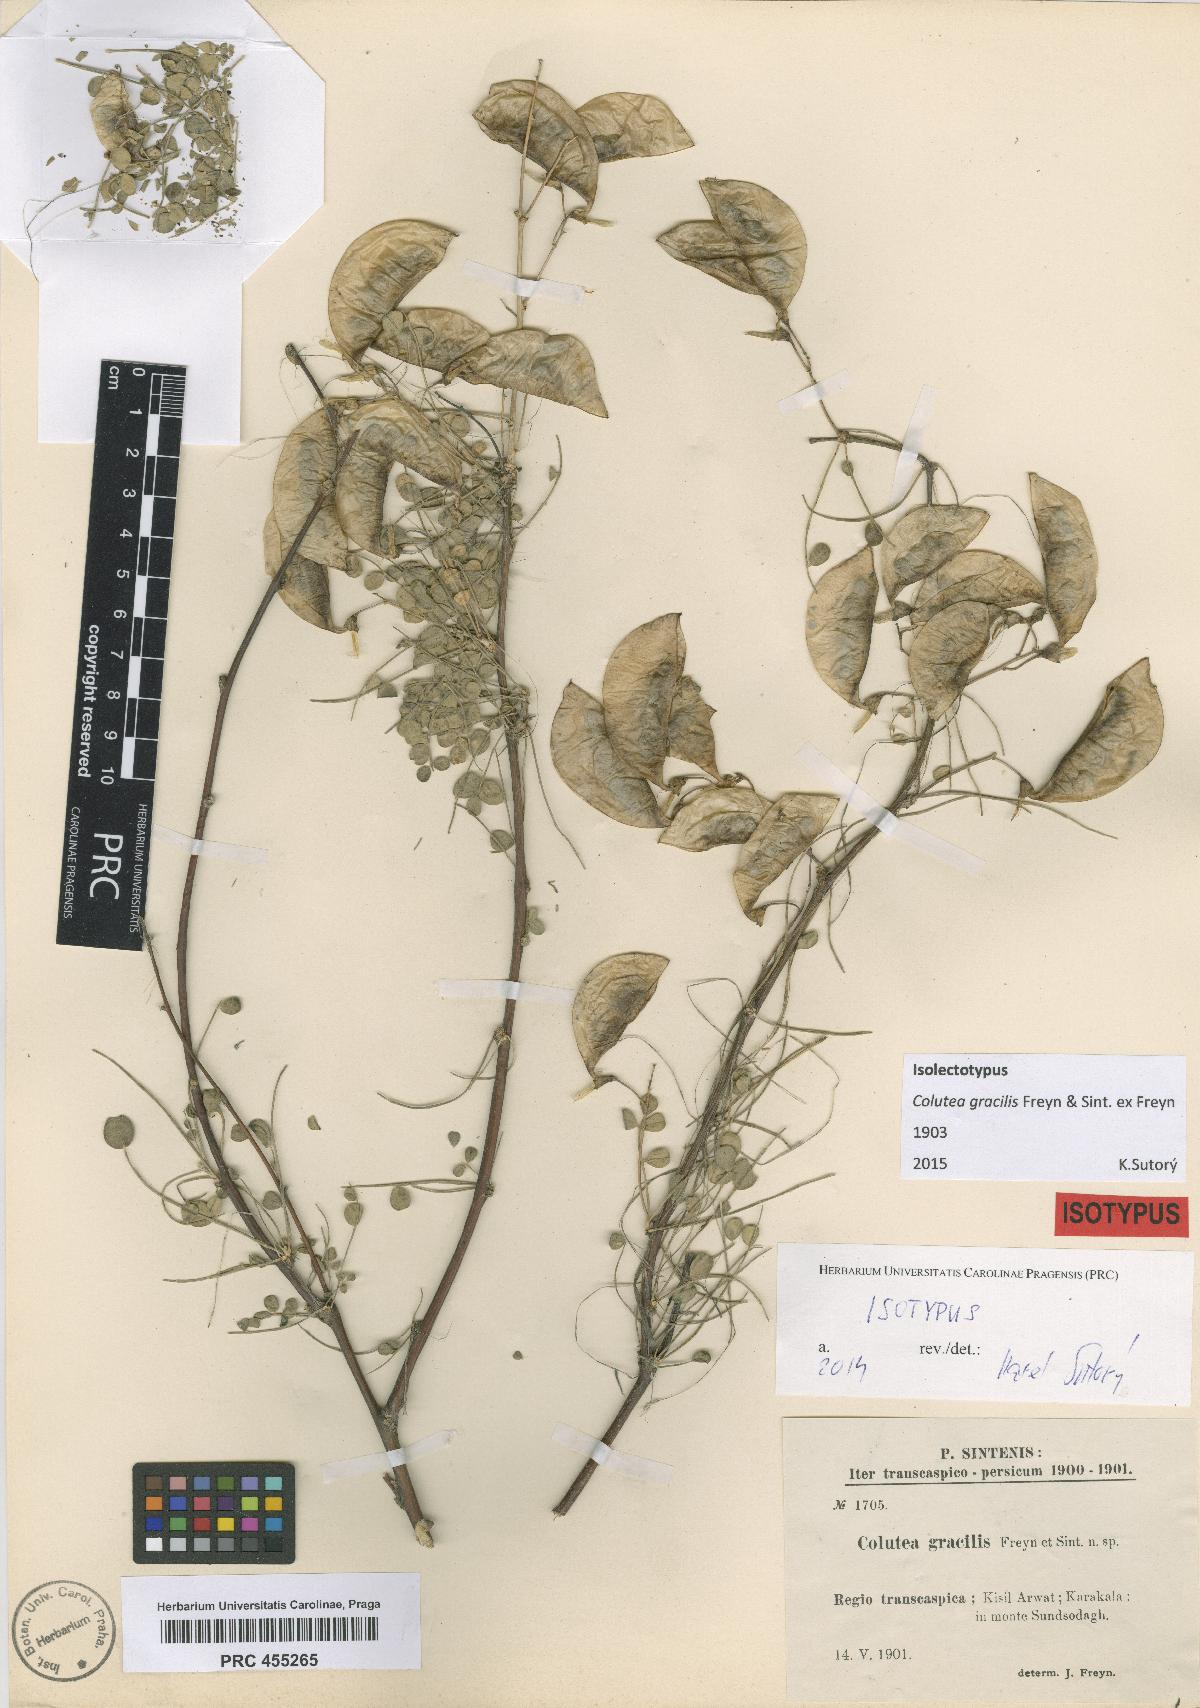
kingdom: Plantae
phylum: Tracheophyta
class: Magnoliopsida
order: Fabales
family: Fabaceae
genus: Colutea
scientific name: Colutea gracilis
